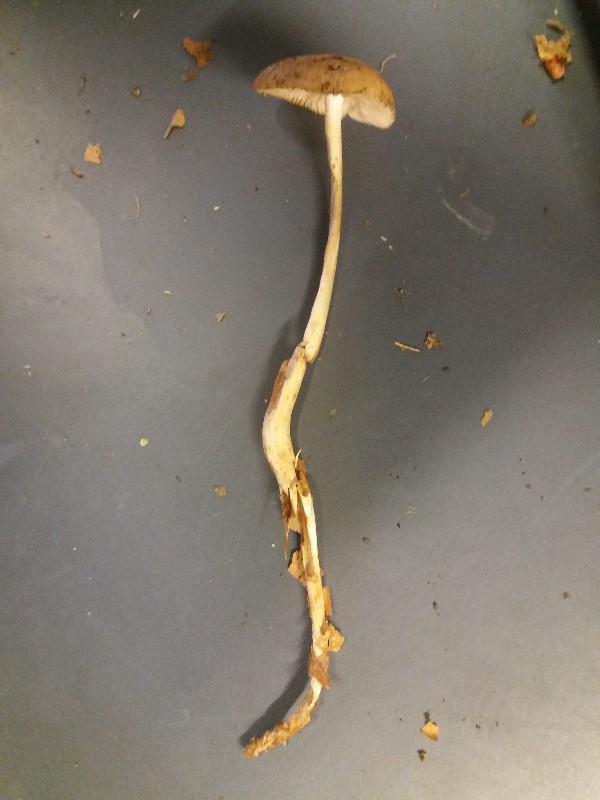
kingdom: Fungi
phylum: Basidiomycota
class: Agaricomycetes
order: Agaricales
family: Physalacriaceae
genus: Hymenopellis
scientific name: Hymenopellis radicata
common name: almindelig pælerodshat
